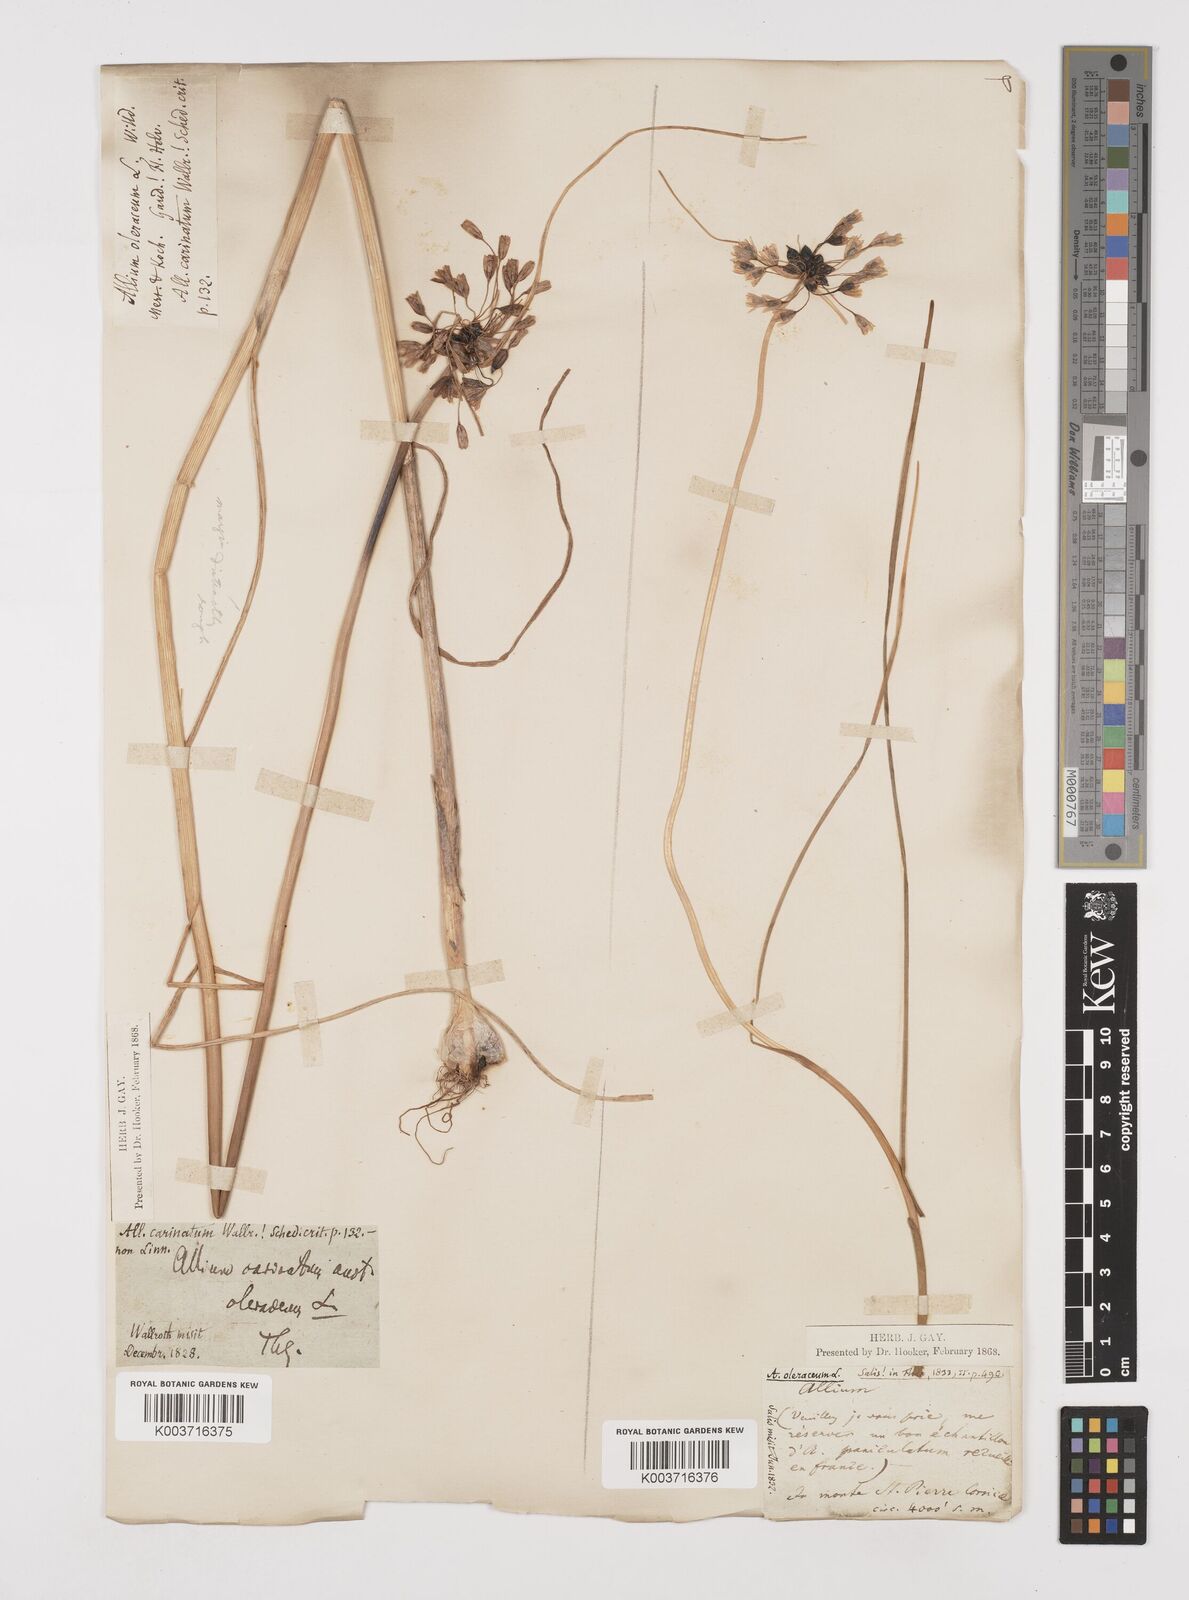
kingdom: Plantae
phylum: Tracheophyta
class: Liliopsida
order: Asparagales
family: Amaryllidaceae
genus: Allium
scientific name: Allium oleraceum
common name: Field garlic
